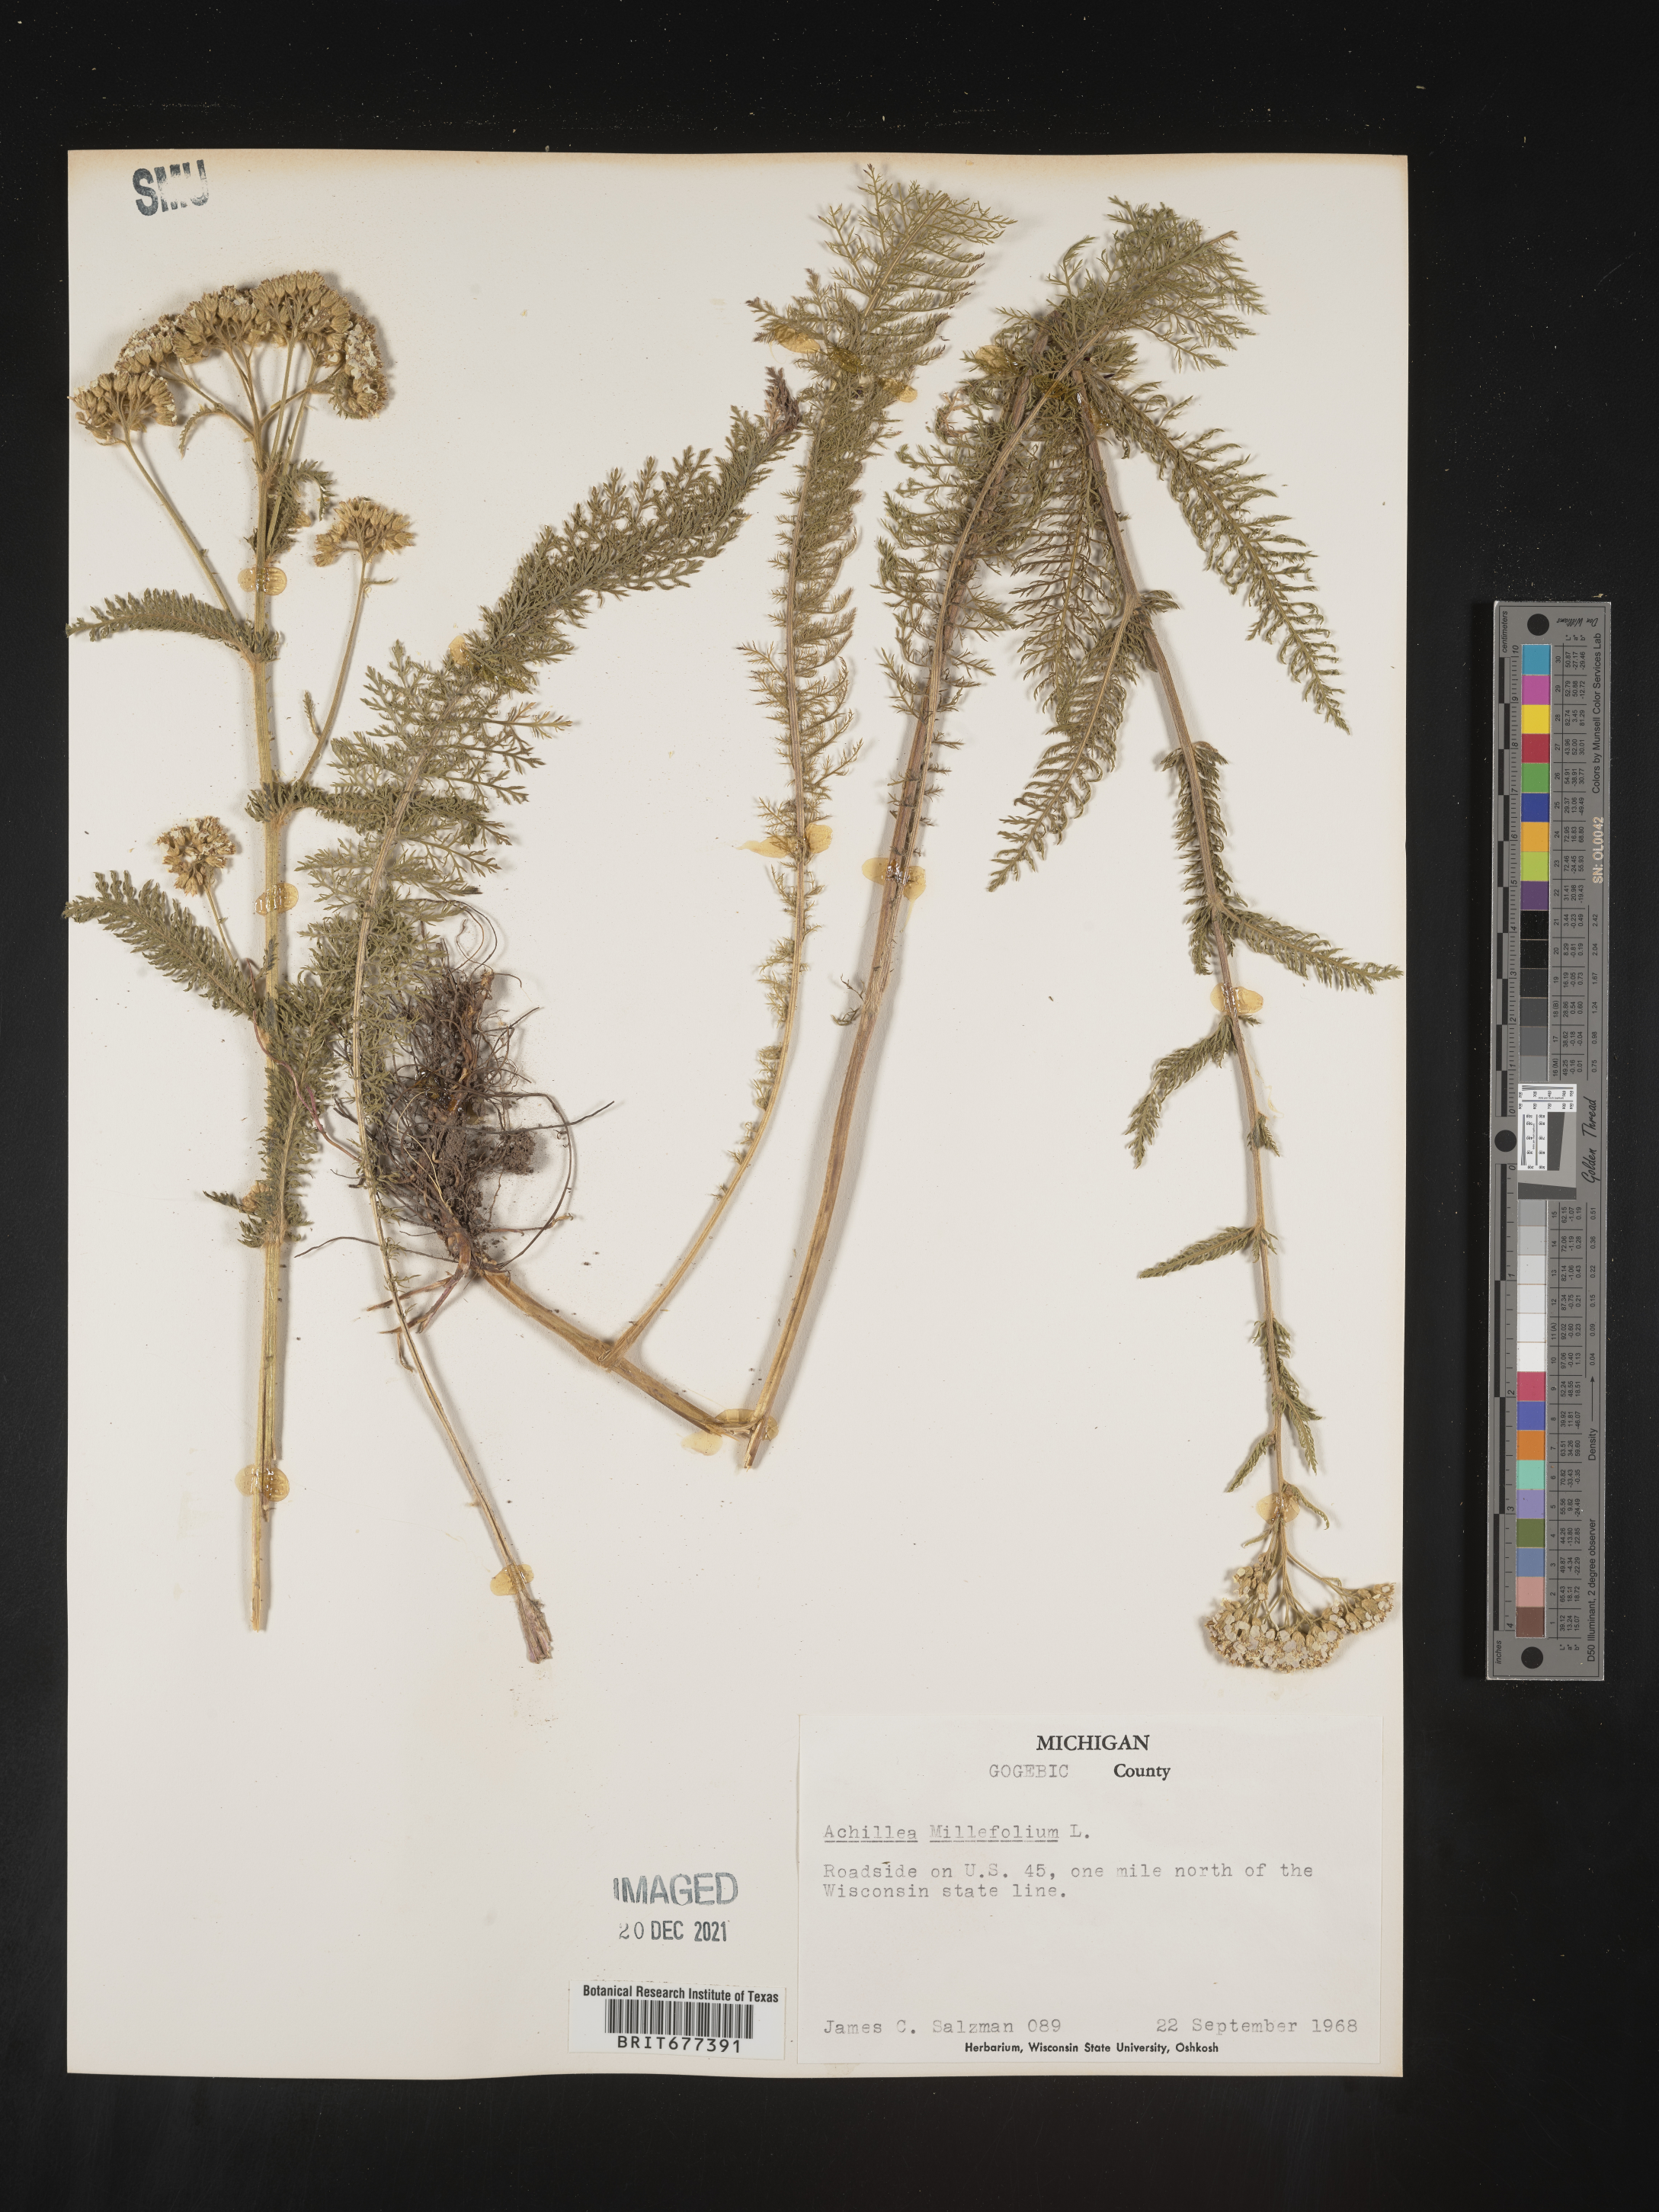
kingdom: Plantae
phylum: Tracheophyta
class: Magnoliopsida
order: Asterales
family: Asteraceae
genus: Achillea
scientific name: Achillea millefolium
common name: Yarrow
